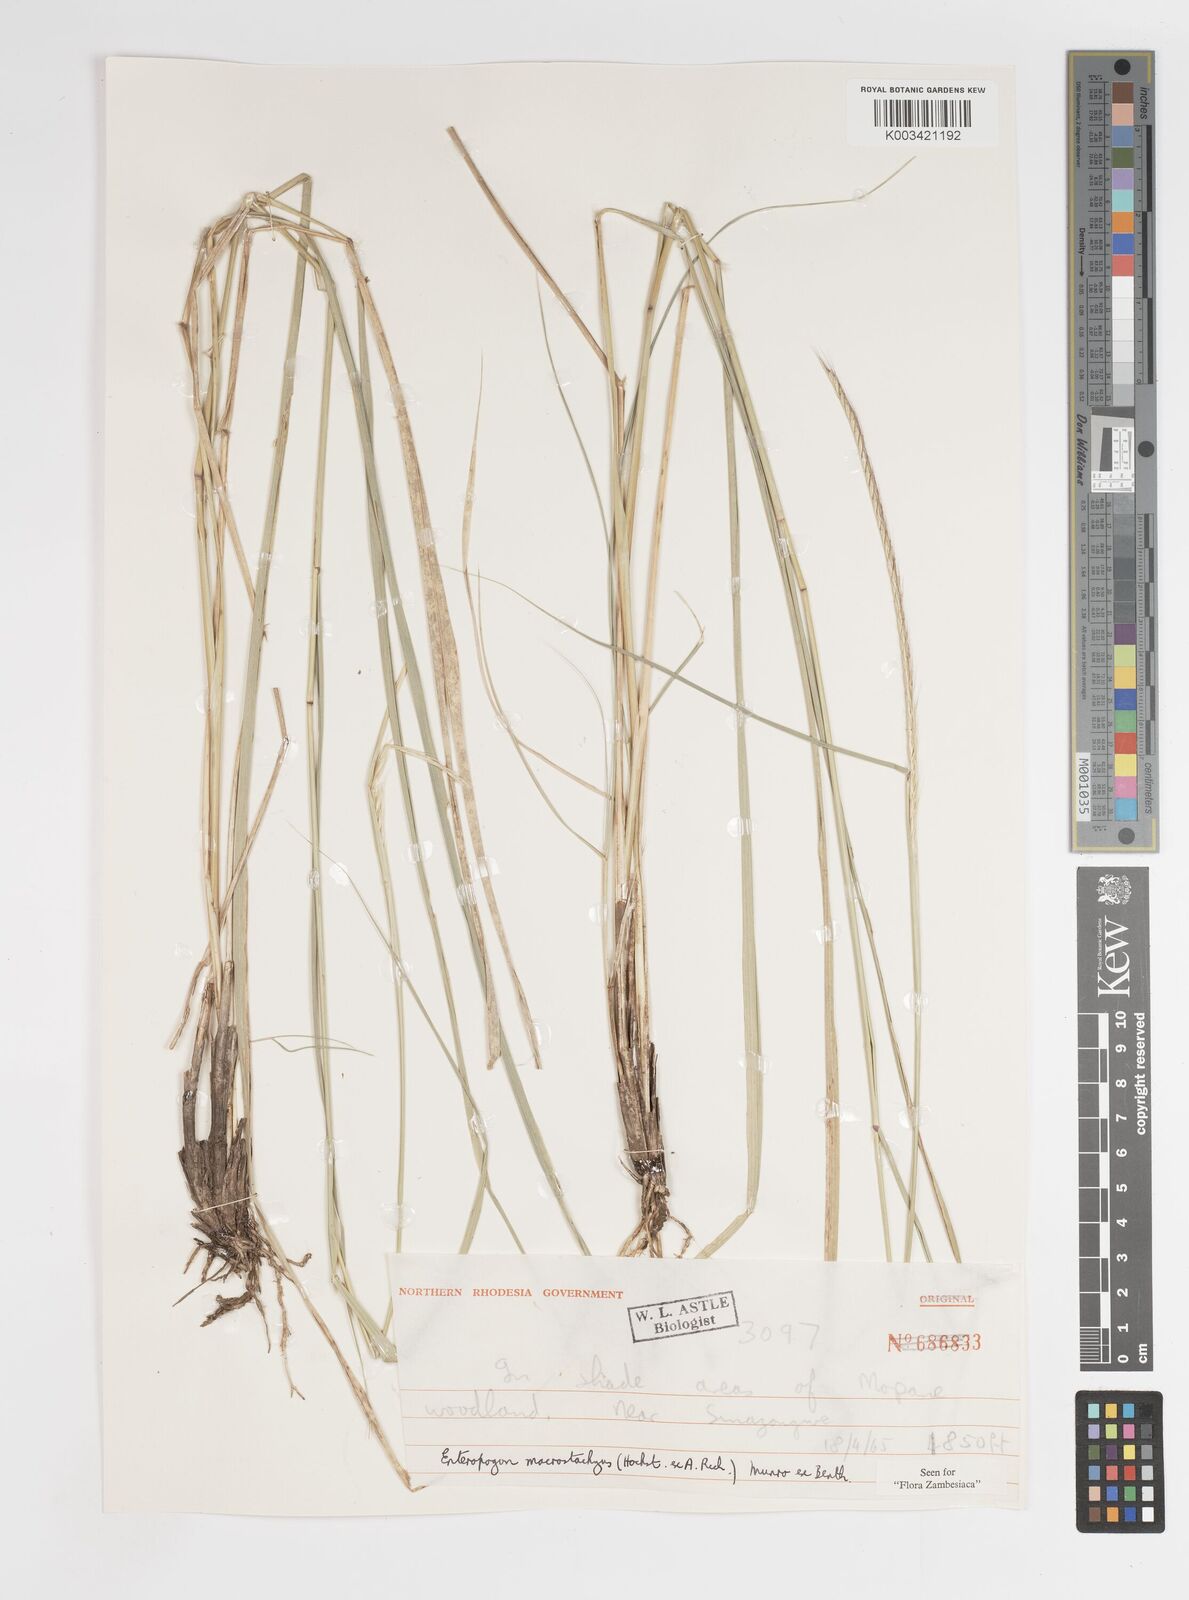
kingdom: Plantae
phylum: Tracheophyta
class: Liliopsida
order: Poales
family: Poaceae
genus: Enteropogon
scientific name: Enteropogon macrostachyus
